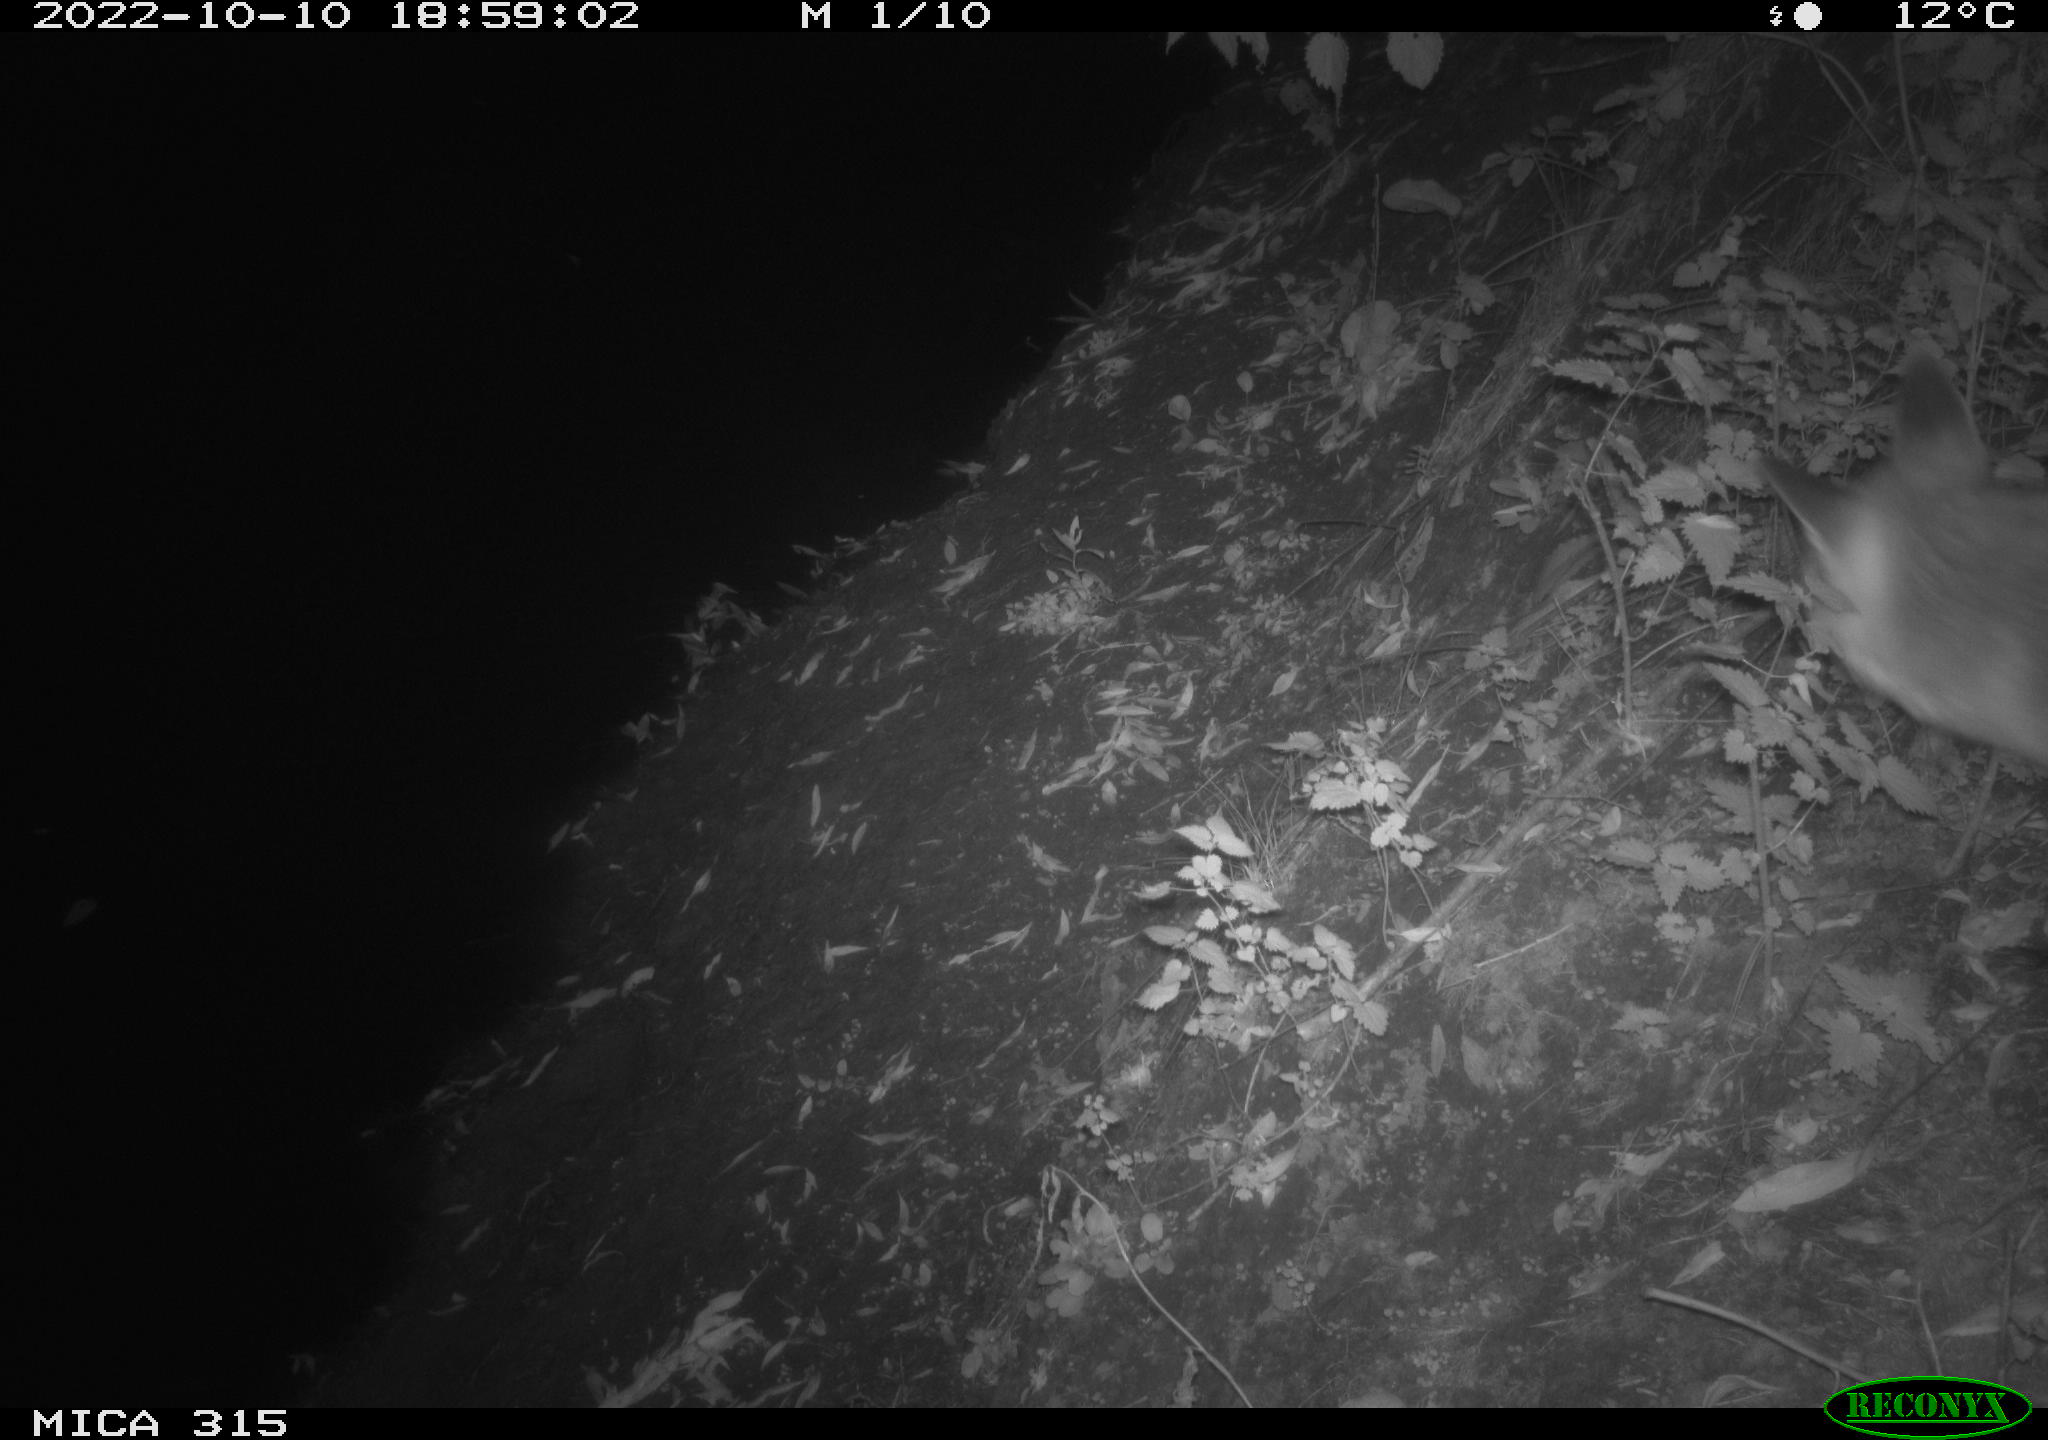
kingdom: Animalia
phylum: Chordata
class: Mammalia
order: Carnivora
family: Canidae
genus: Vulpes
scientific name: Vulpes vulpes
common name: Red fox
